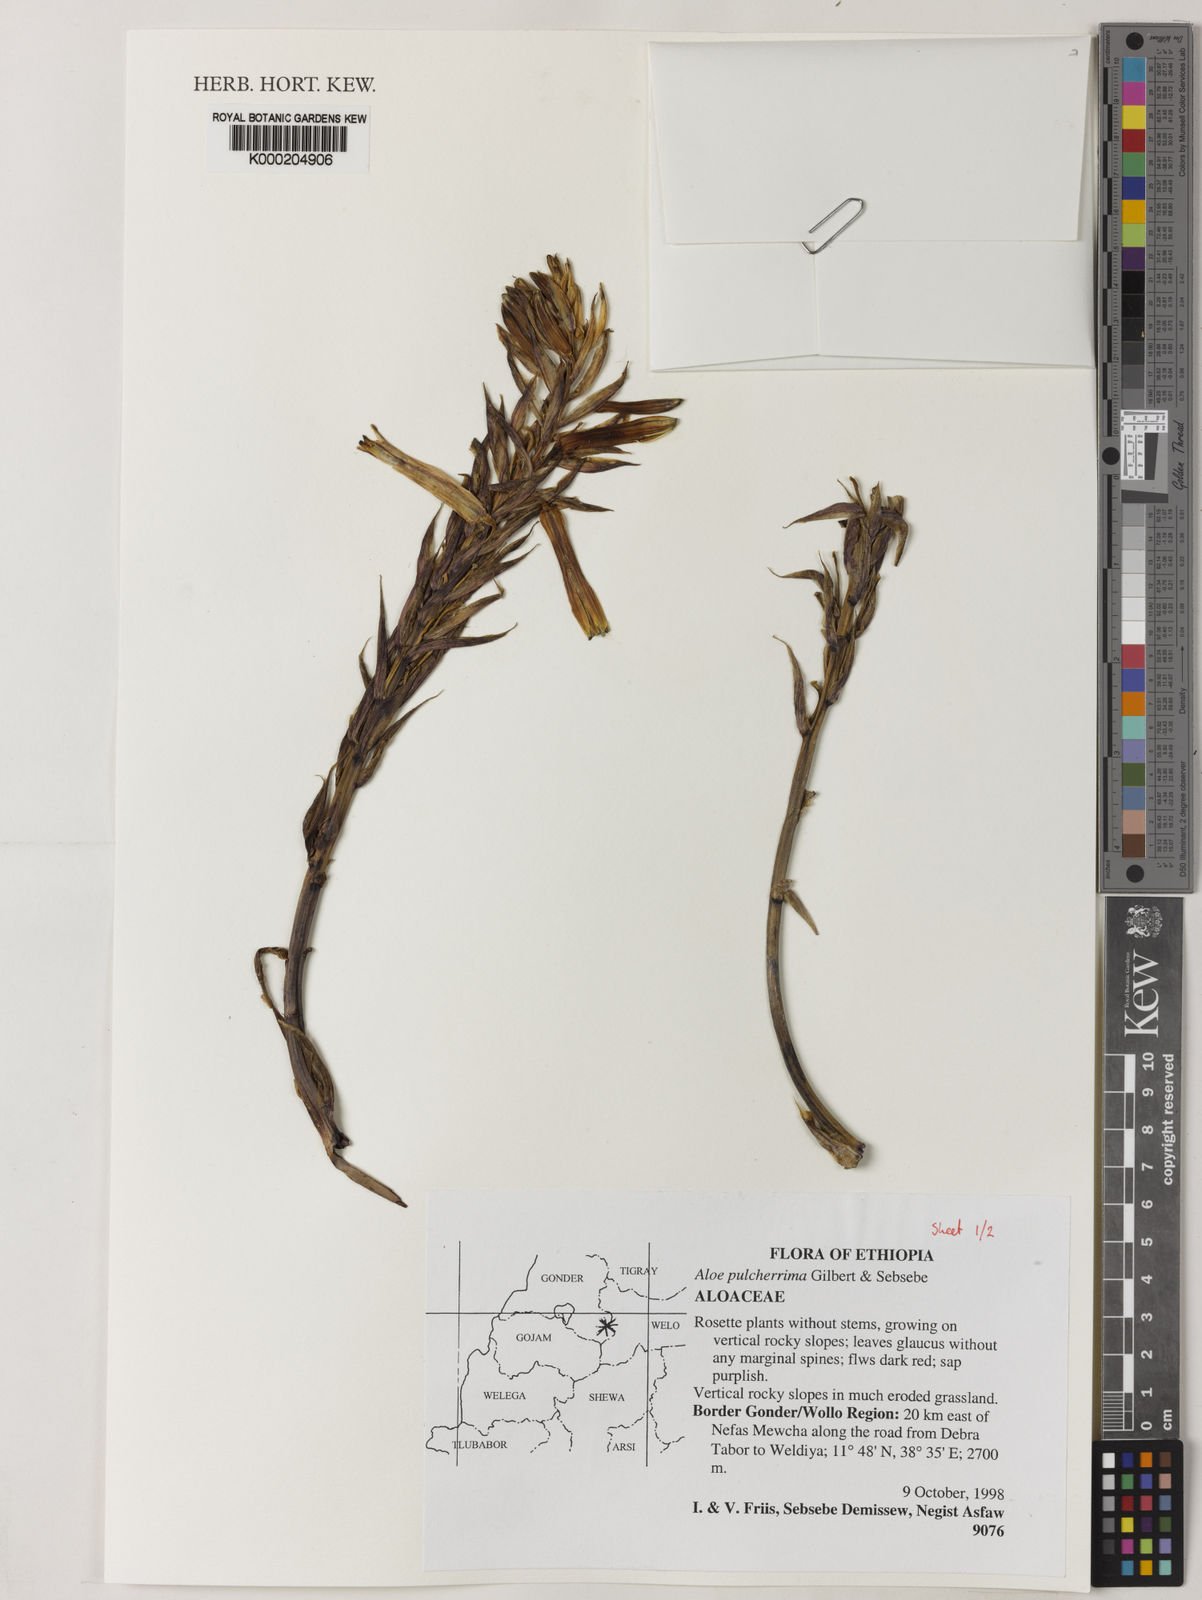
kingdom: Plantae
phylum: Tracheophyta
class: Liliopsida
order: Asparagales
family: Asphodelaceae
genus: Aloe
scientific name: Aloe pulcherrima
